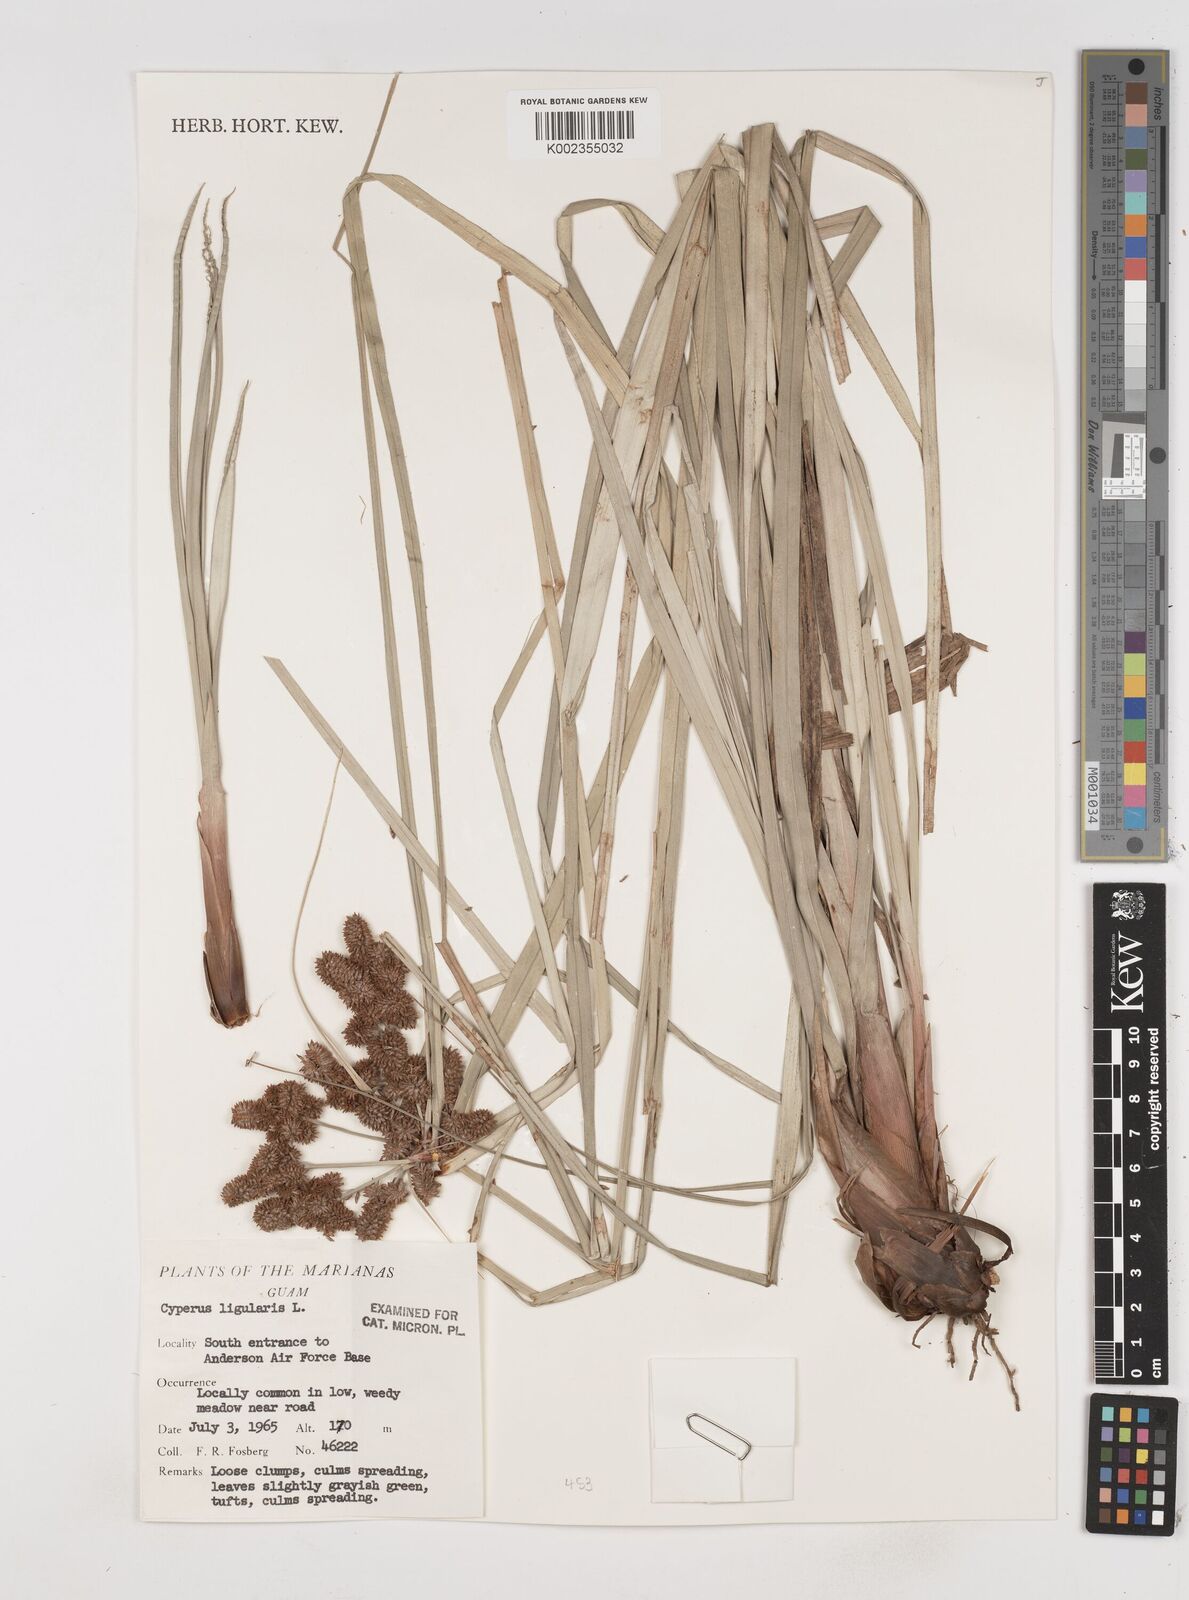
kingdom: Plantae
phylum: Tracheophyta
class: Liliopsida
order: Poales
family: Cyperaceae
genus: Cyperus
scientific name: Cyperus ligularis
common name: Swamp flat sedge
